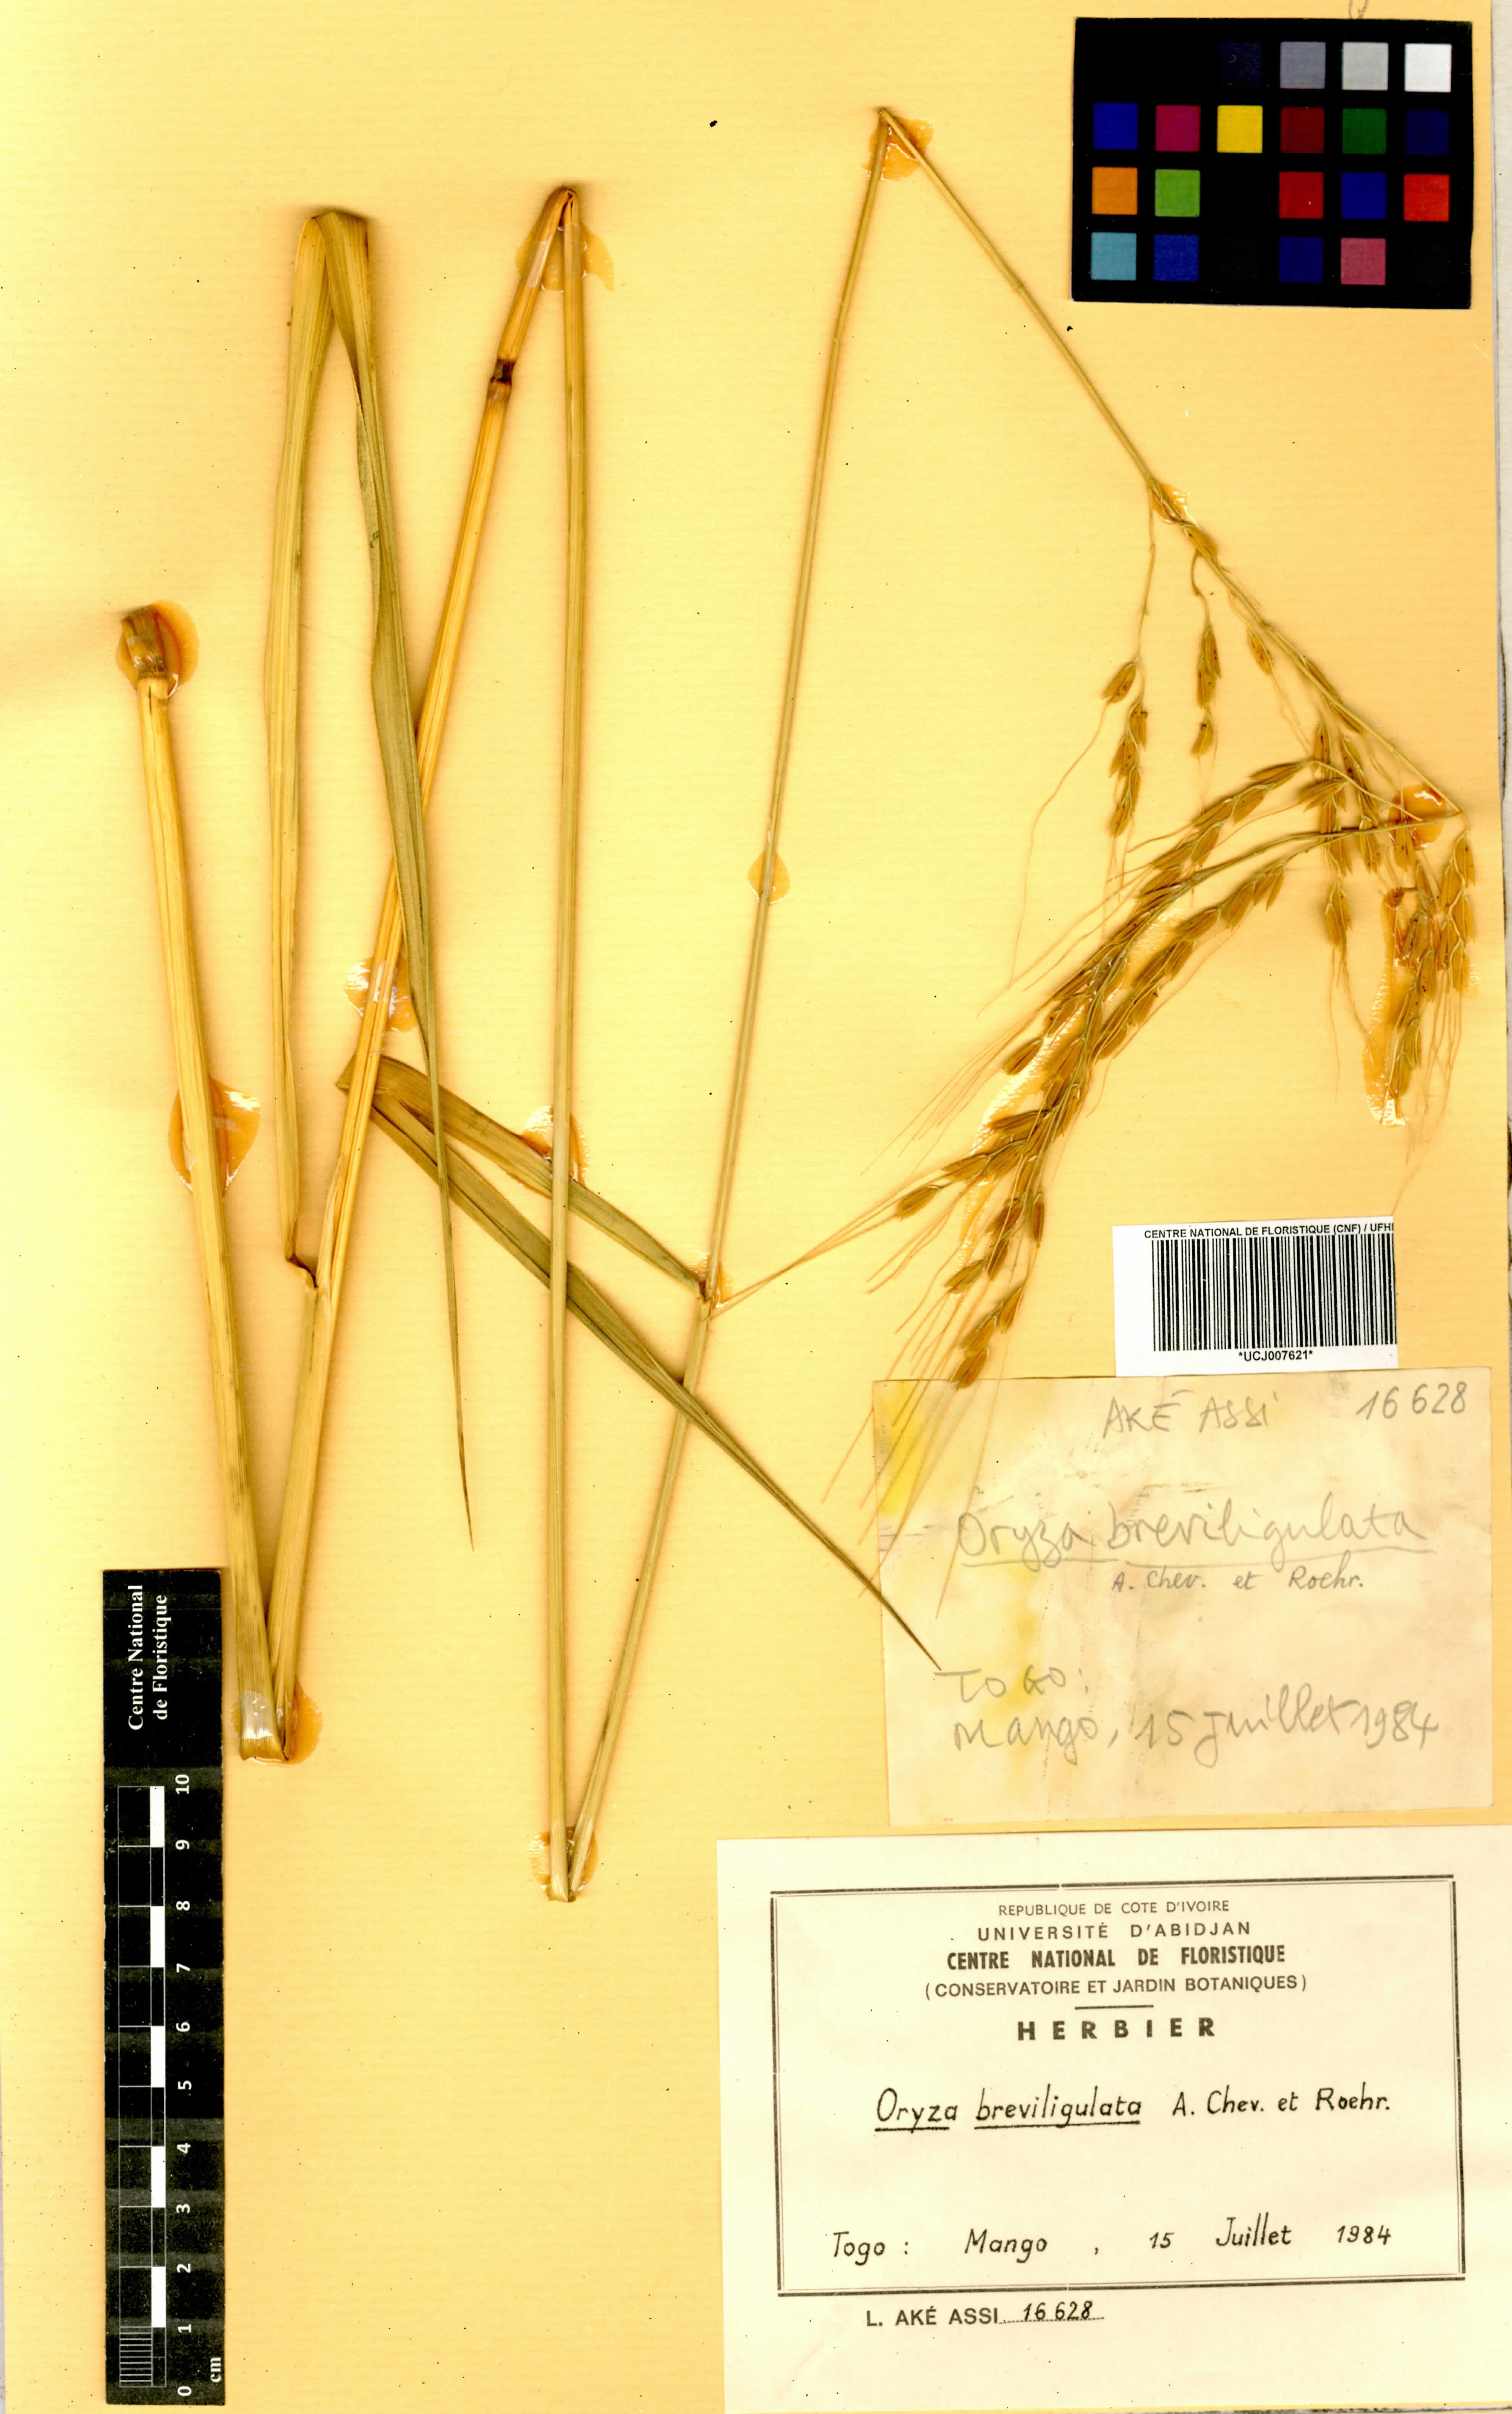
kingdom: Plantae
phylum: Tracheophyta
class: Liliopsida
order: Poales
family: Poaceae
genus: Oryza
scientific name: Oryza barthii
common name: Wild rice
